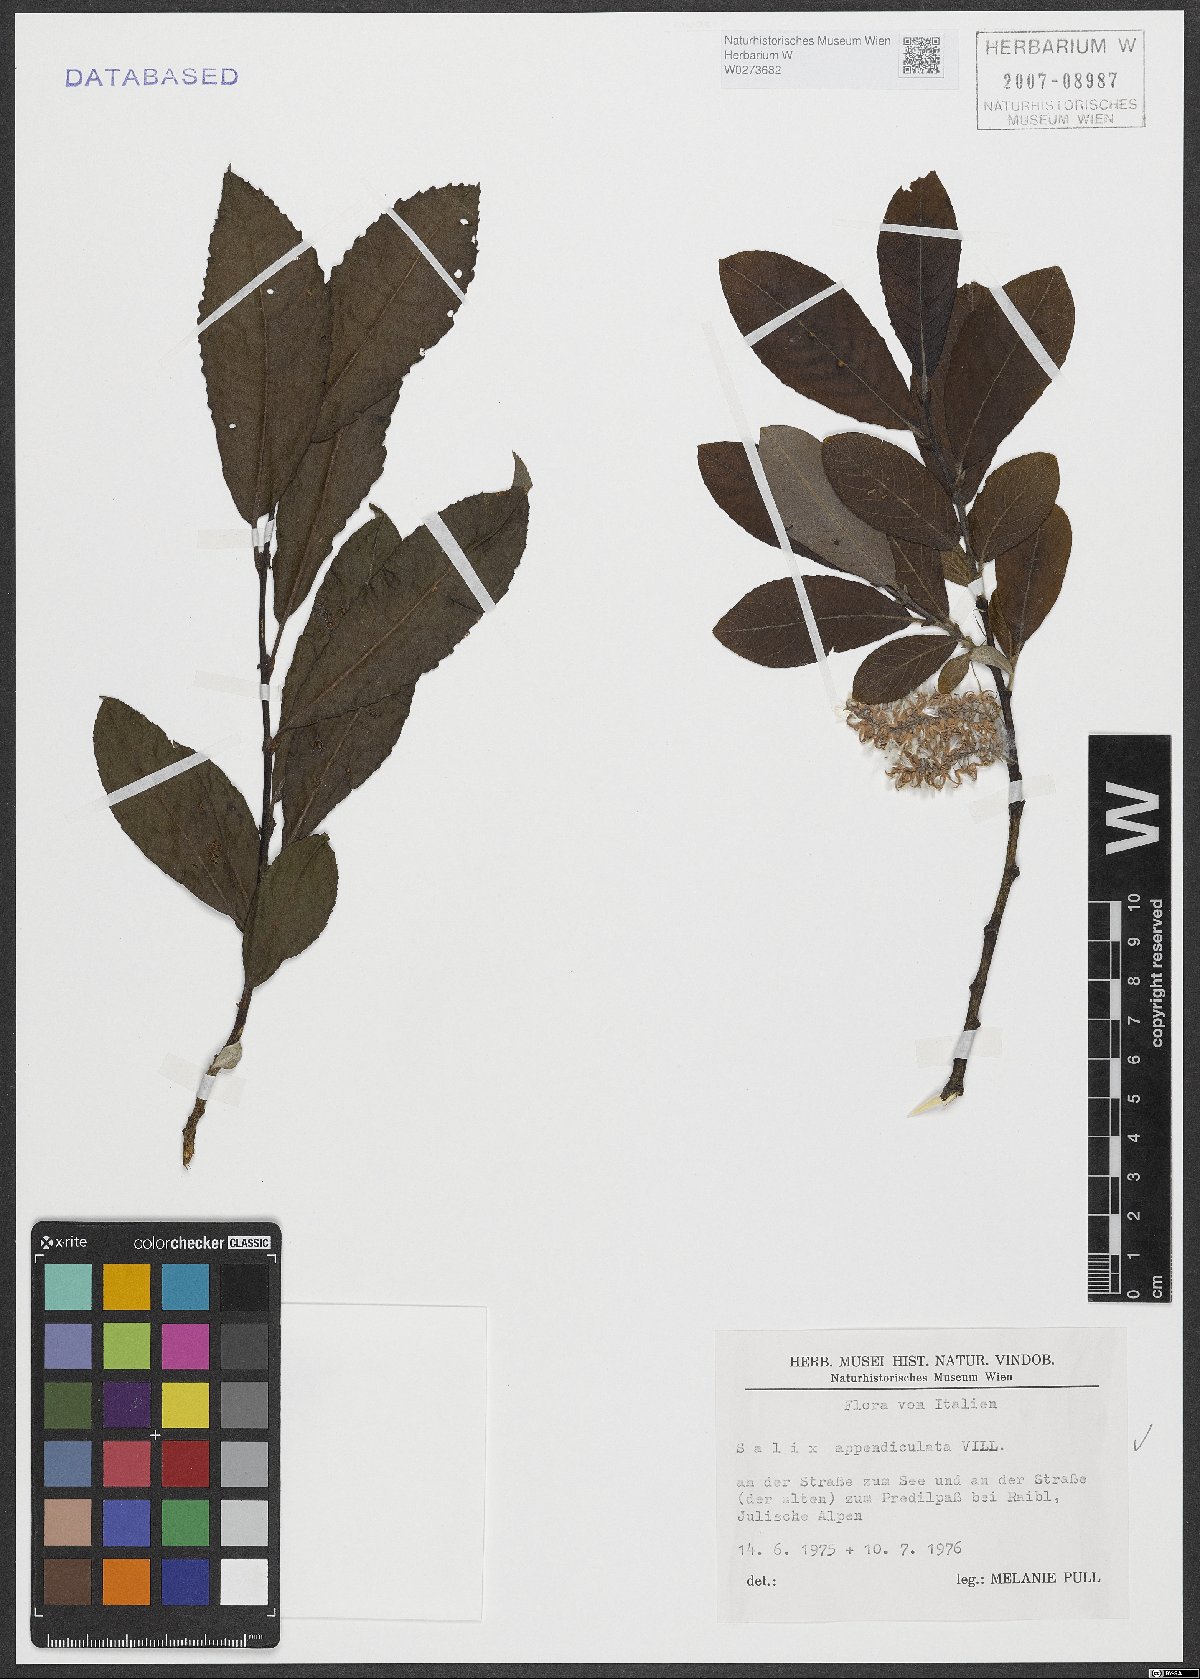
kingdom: Plantae
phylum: Tracheophyta
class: Magnoliopsida
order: Malpighiales
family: Salicaceae
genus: Salix
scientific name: Salix appendiculata
